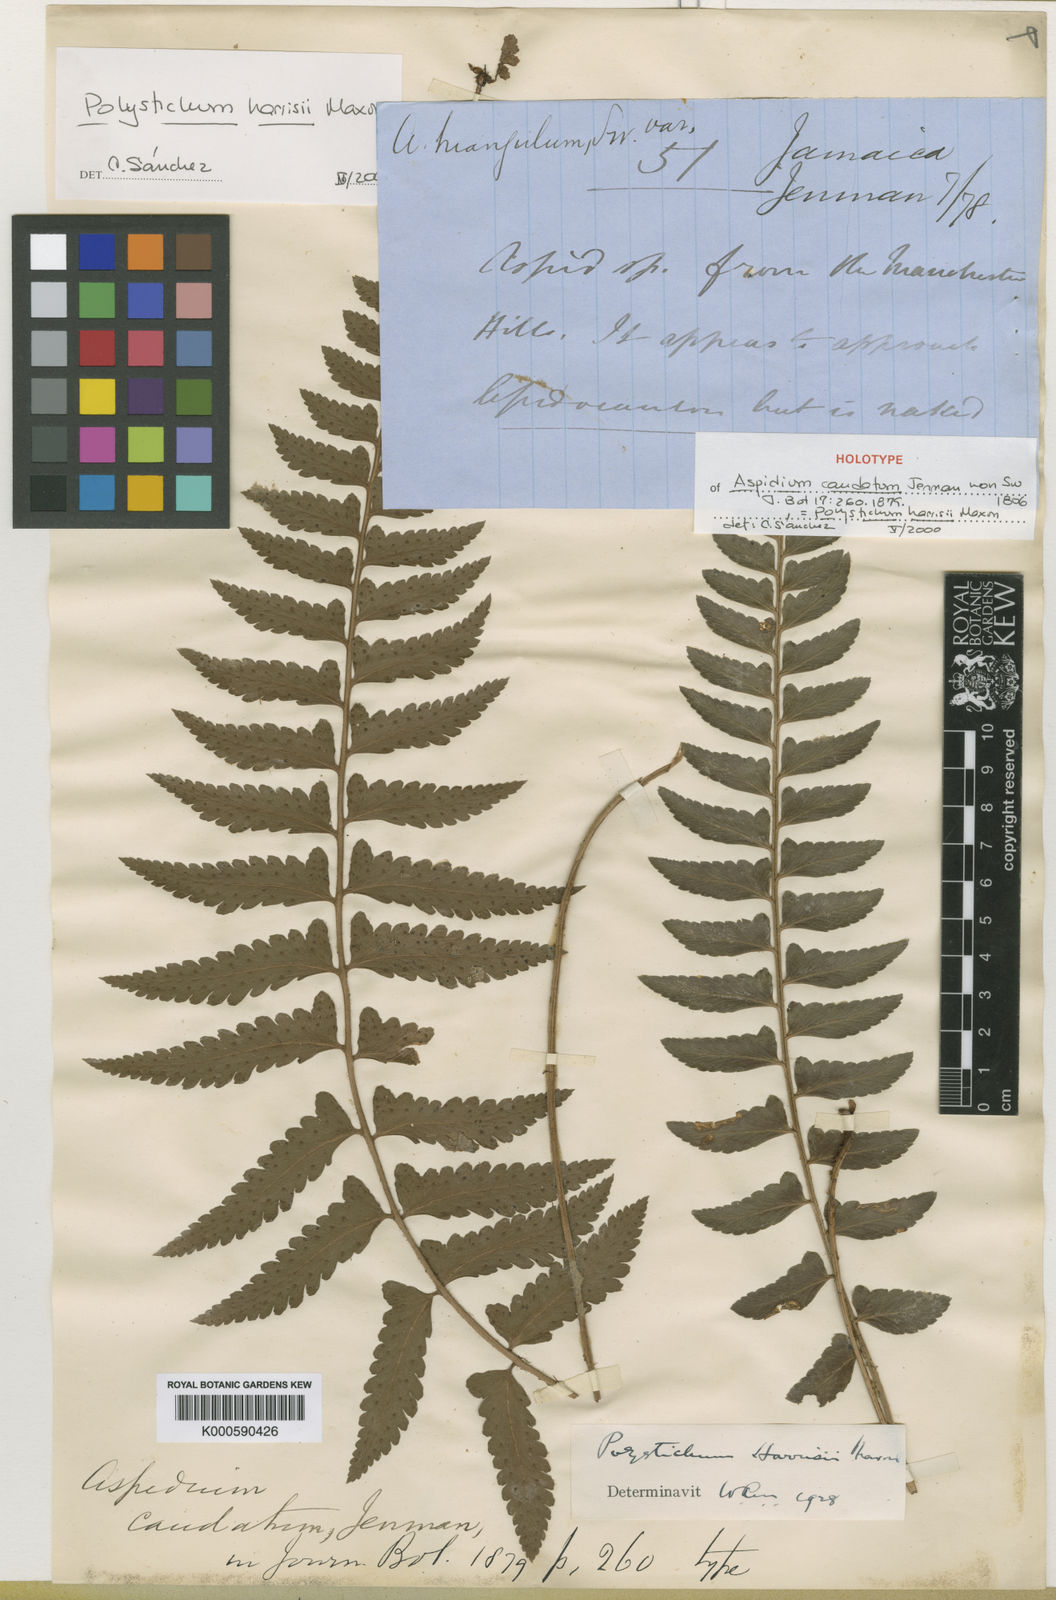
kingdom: Plantae
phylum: Tracheophyta
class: Polypodiopsida
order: Polypodiales
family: Dryopteridaceae
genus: Polystichum
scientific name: Polystichum harrisii
